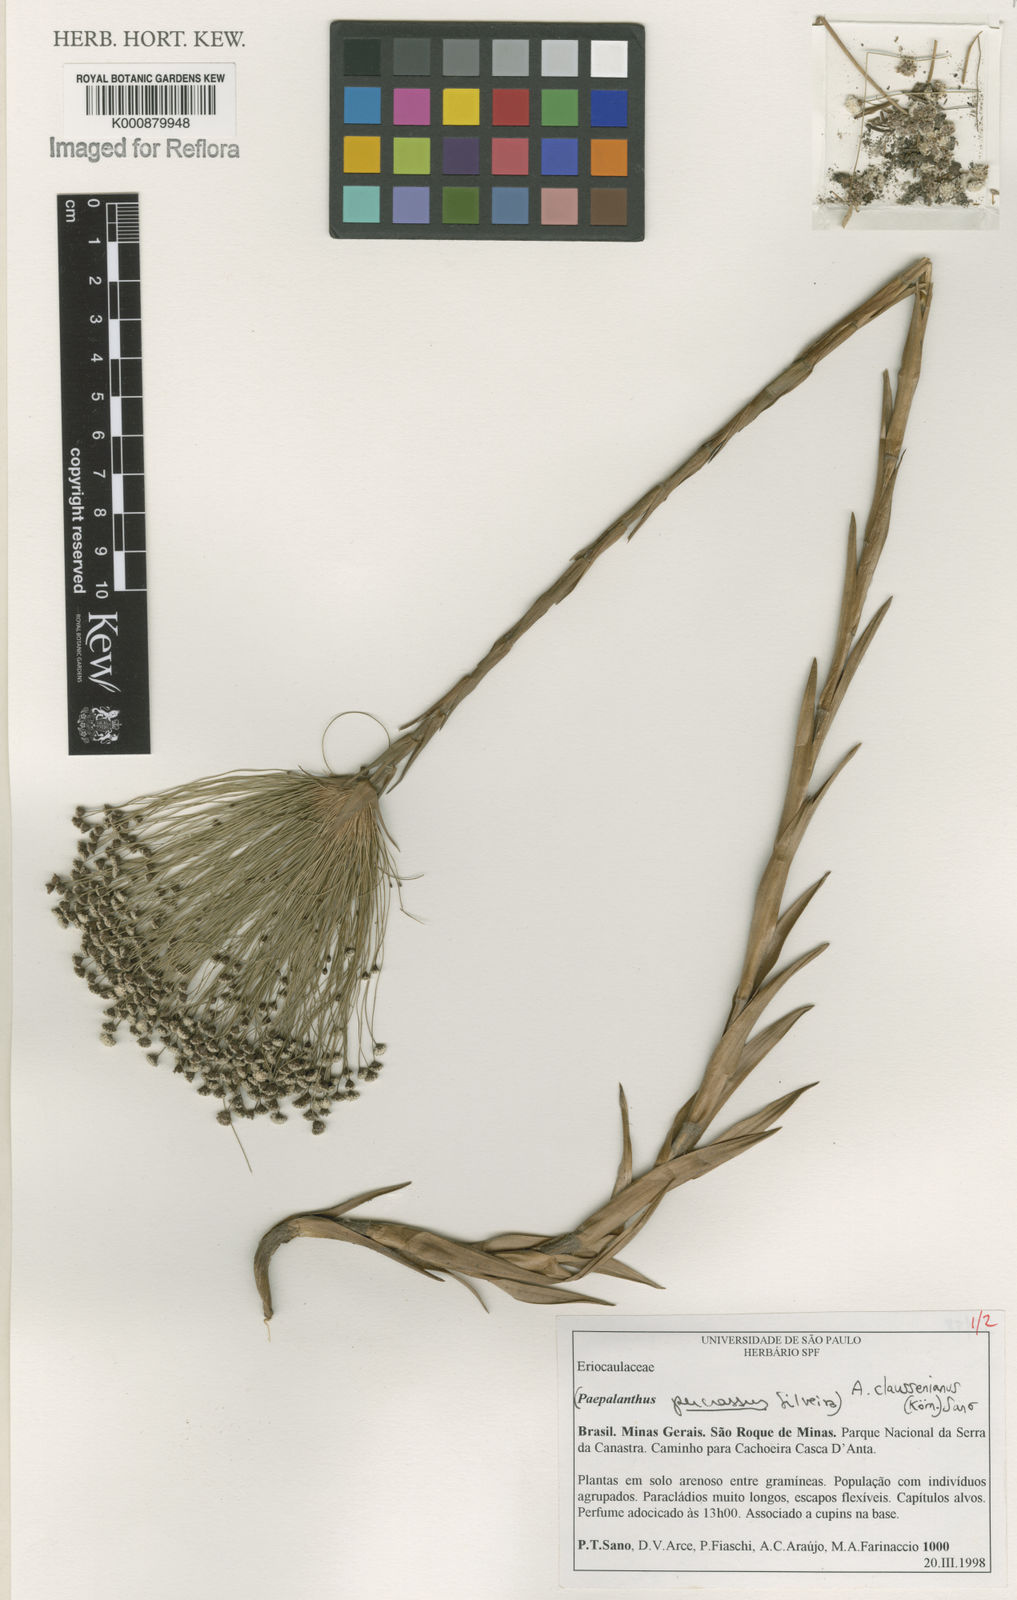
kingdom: Plantae
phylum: Tracheophyta
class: Liliopsida
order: Poales
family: Eriocaulaceae
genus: Paepalanthus
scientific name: Paepalanthus
